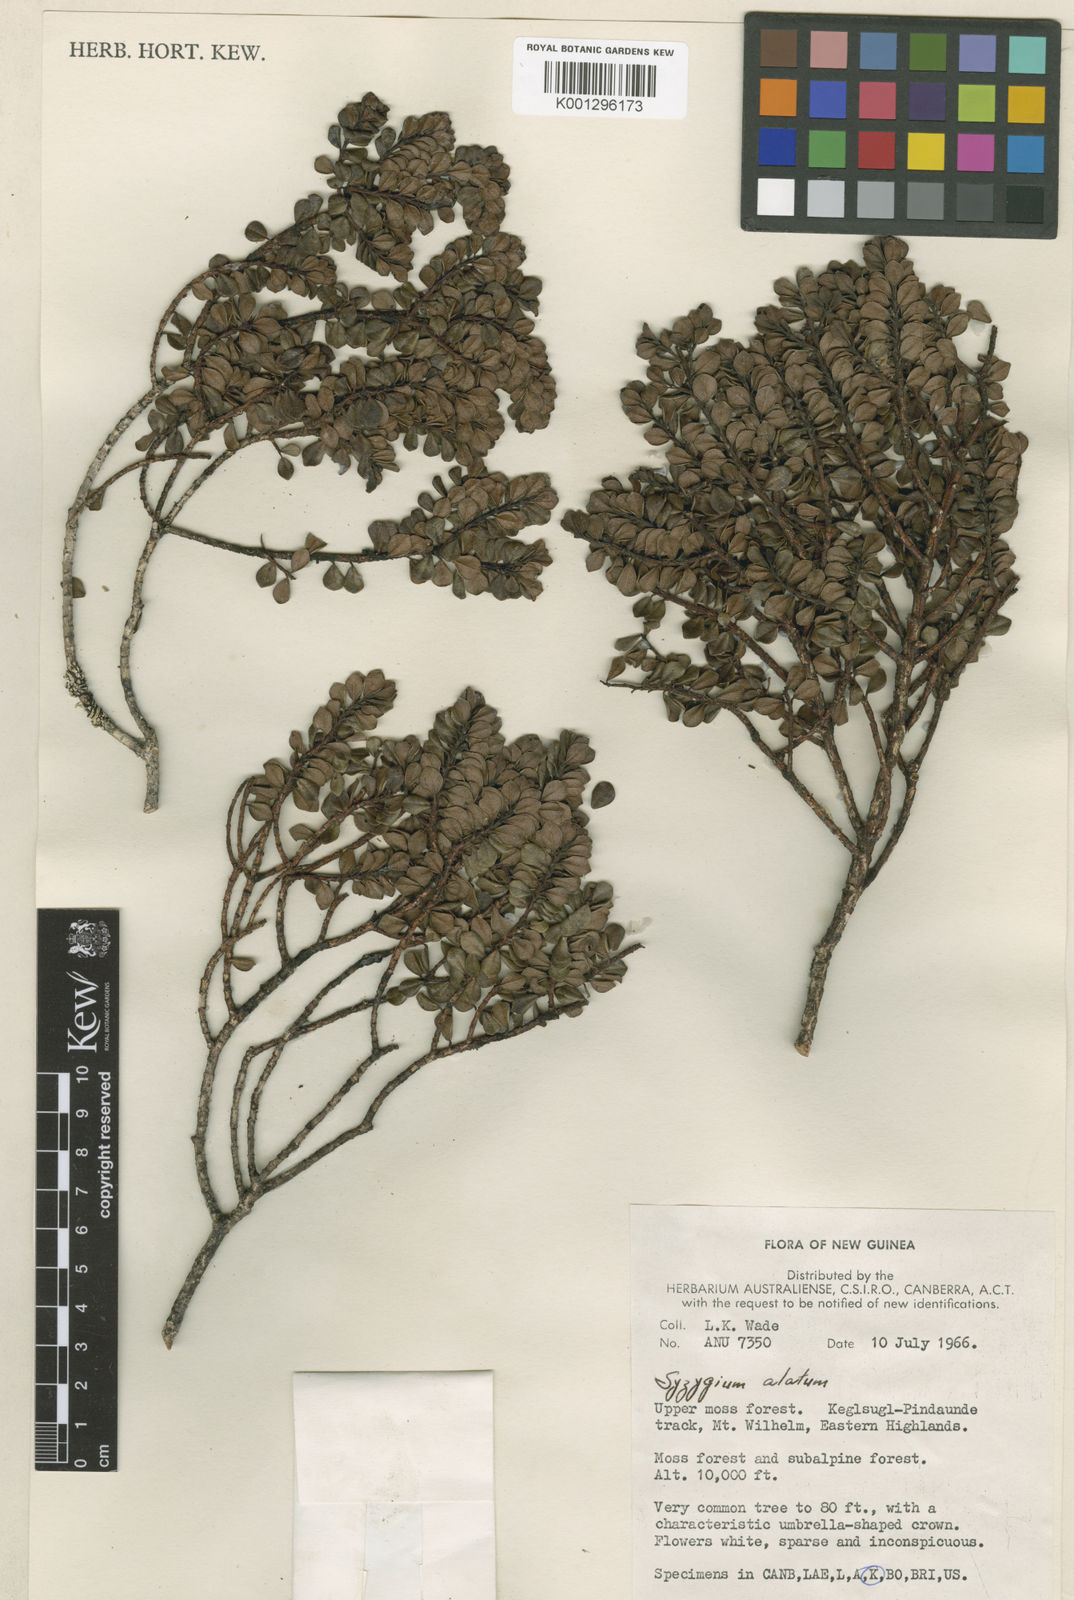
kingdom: Plantae
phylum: Tracheophyta
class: Magnoliopsida
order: Myrtales
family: Myrtaceae
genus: Syzygium
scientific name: Syzygium alatum
